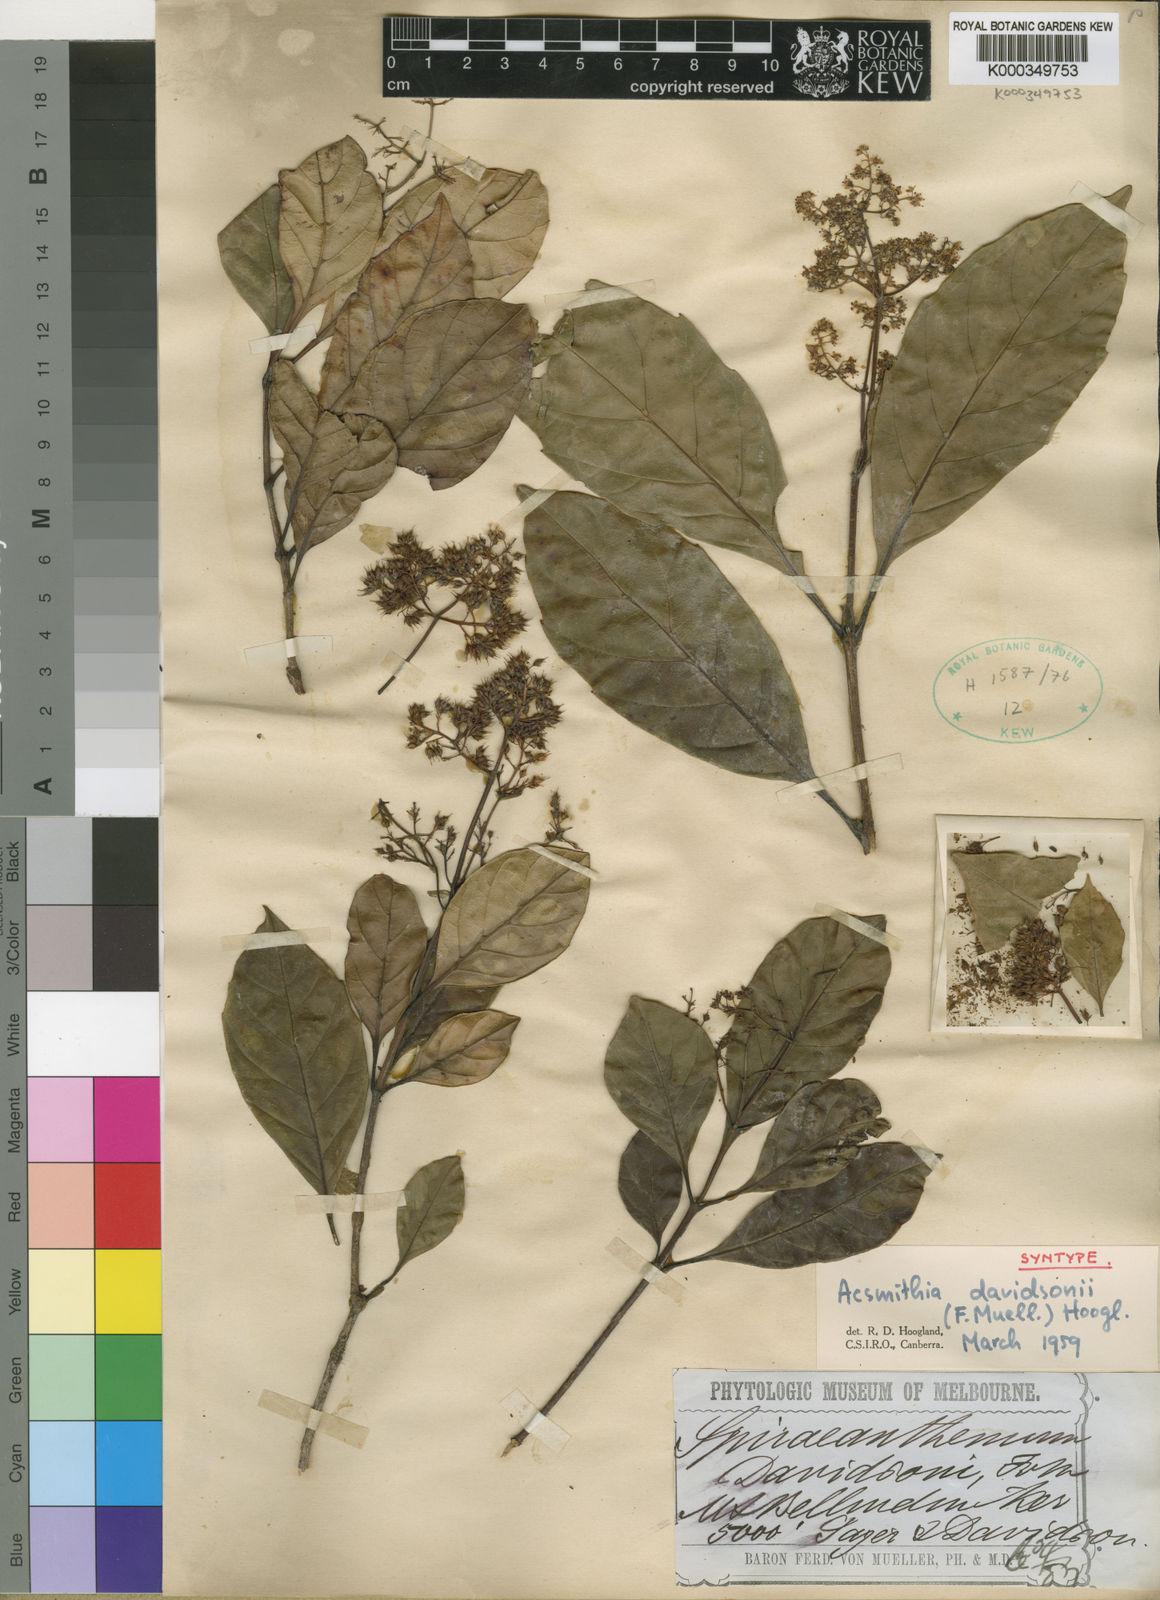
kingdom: Plantae
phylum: Tracheophyta
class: Magnoliopsida
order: Oxalidales
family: Cunoniaceae
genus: Spiraeanthemum
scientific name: Spiraeanthemum davidsonii
